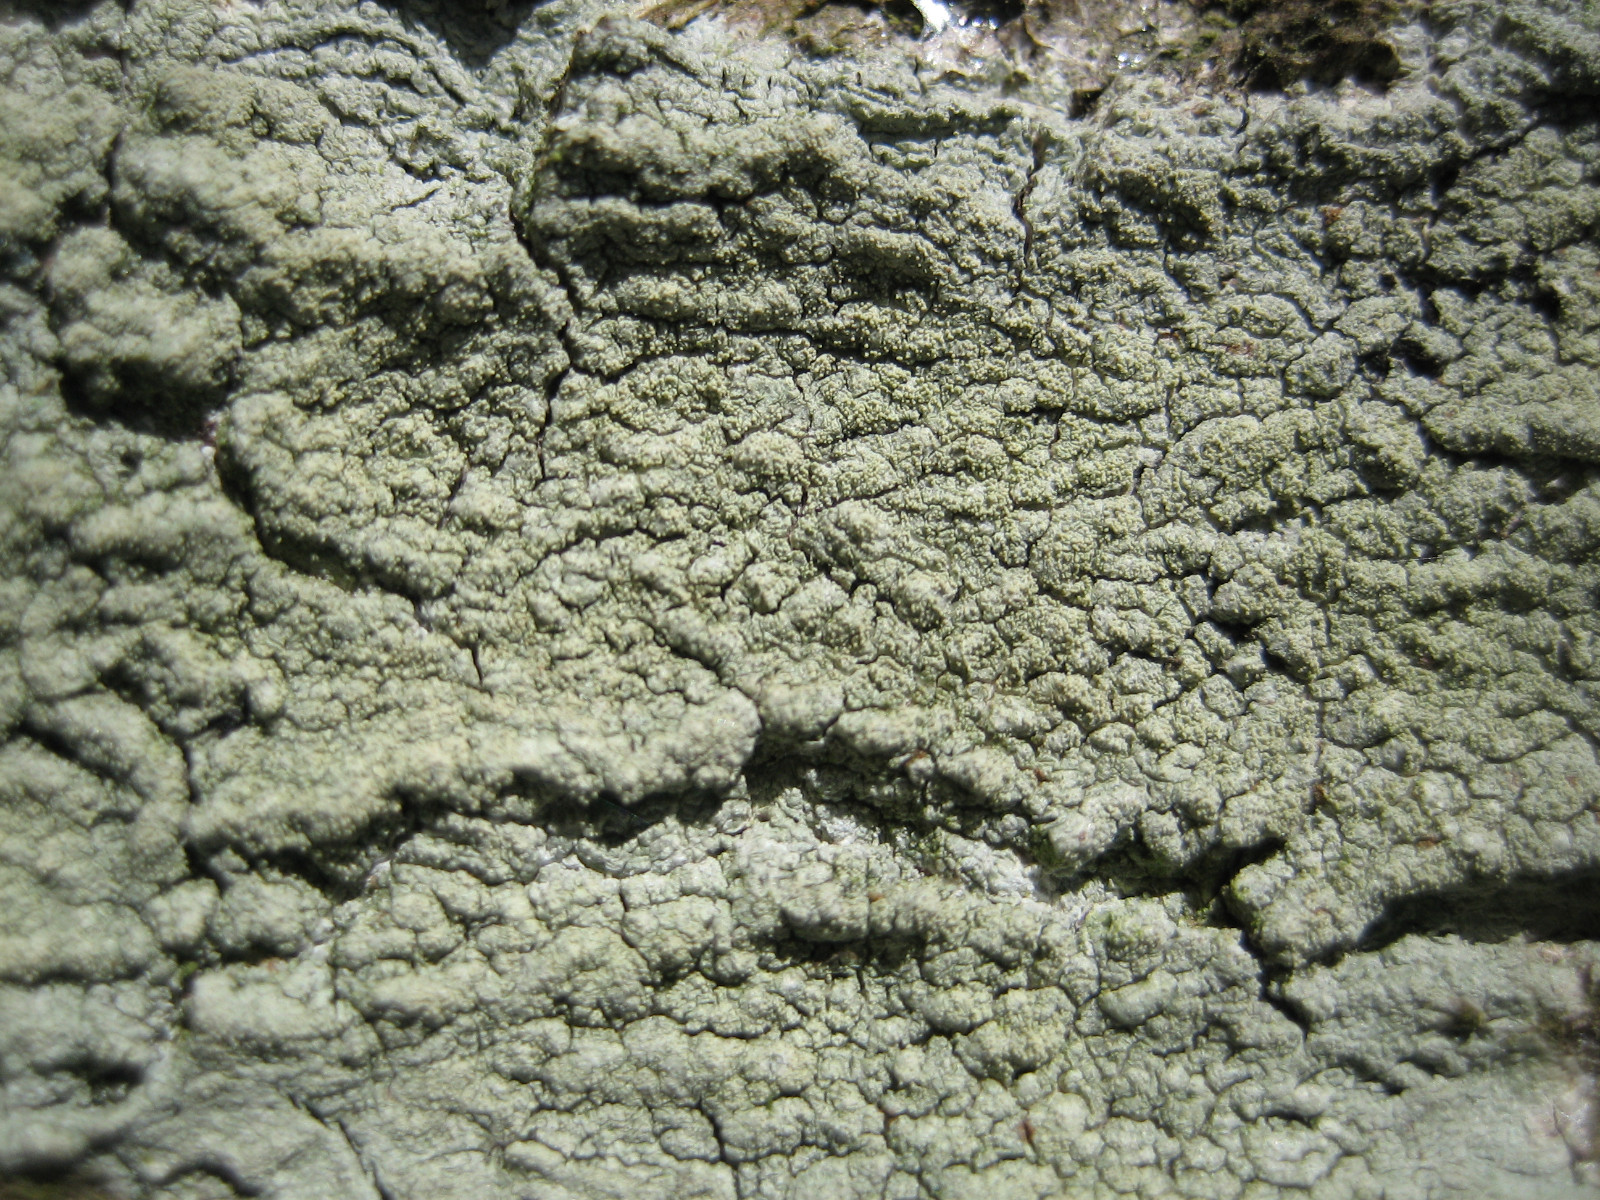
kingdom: Fungi
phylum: Ascomycota
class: Lecanoromycetes
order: Pertusariales
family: Pertusariaceae
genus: Pertusaria
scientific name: Pertusaria flavida
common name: gul prikvortelav
